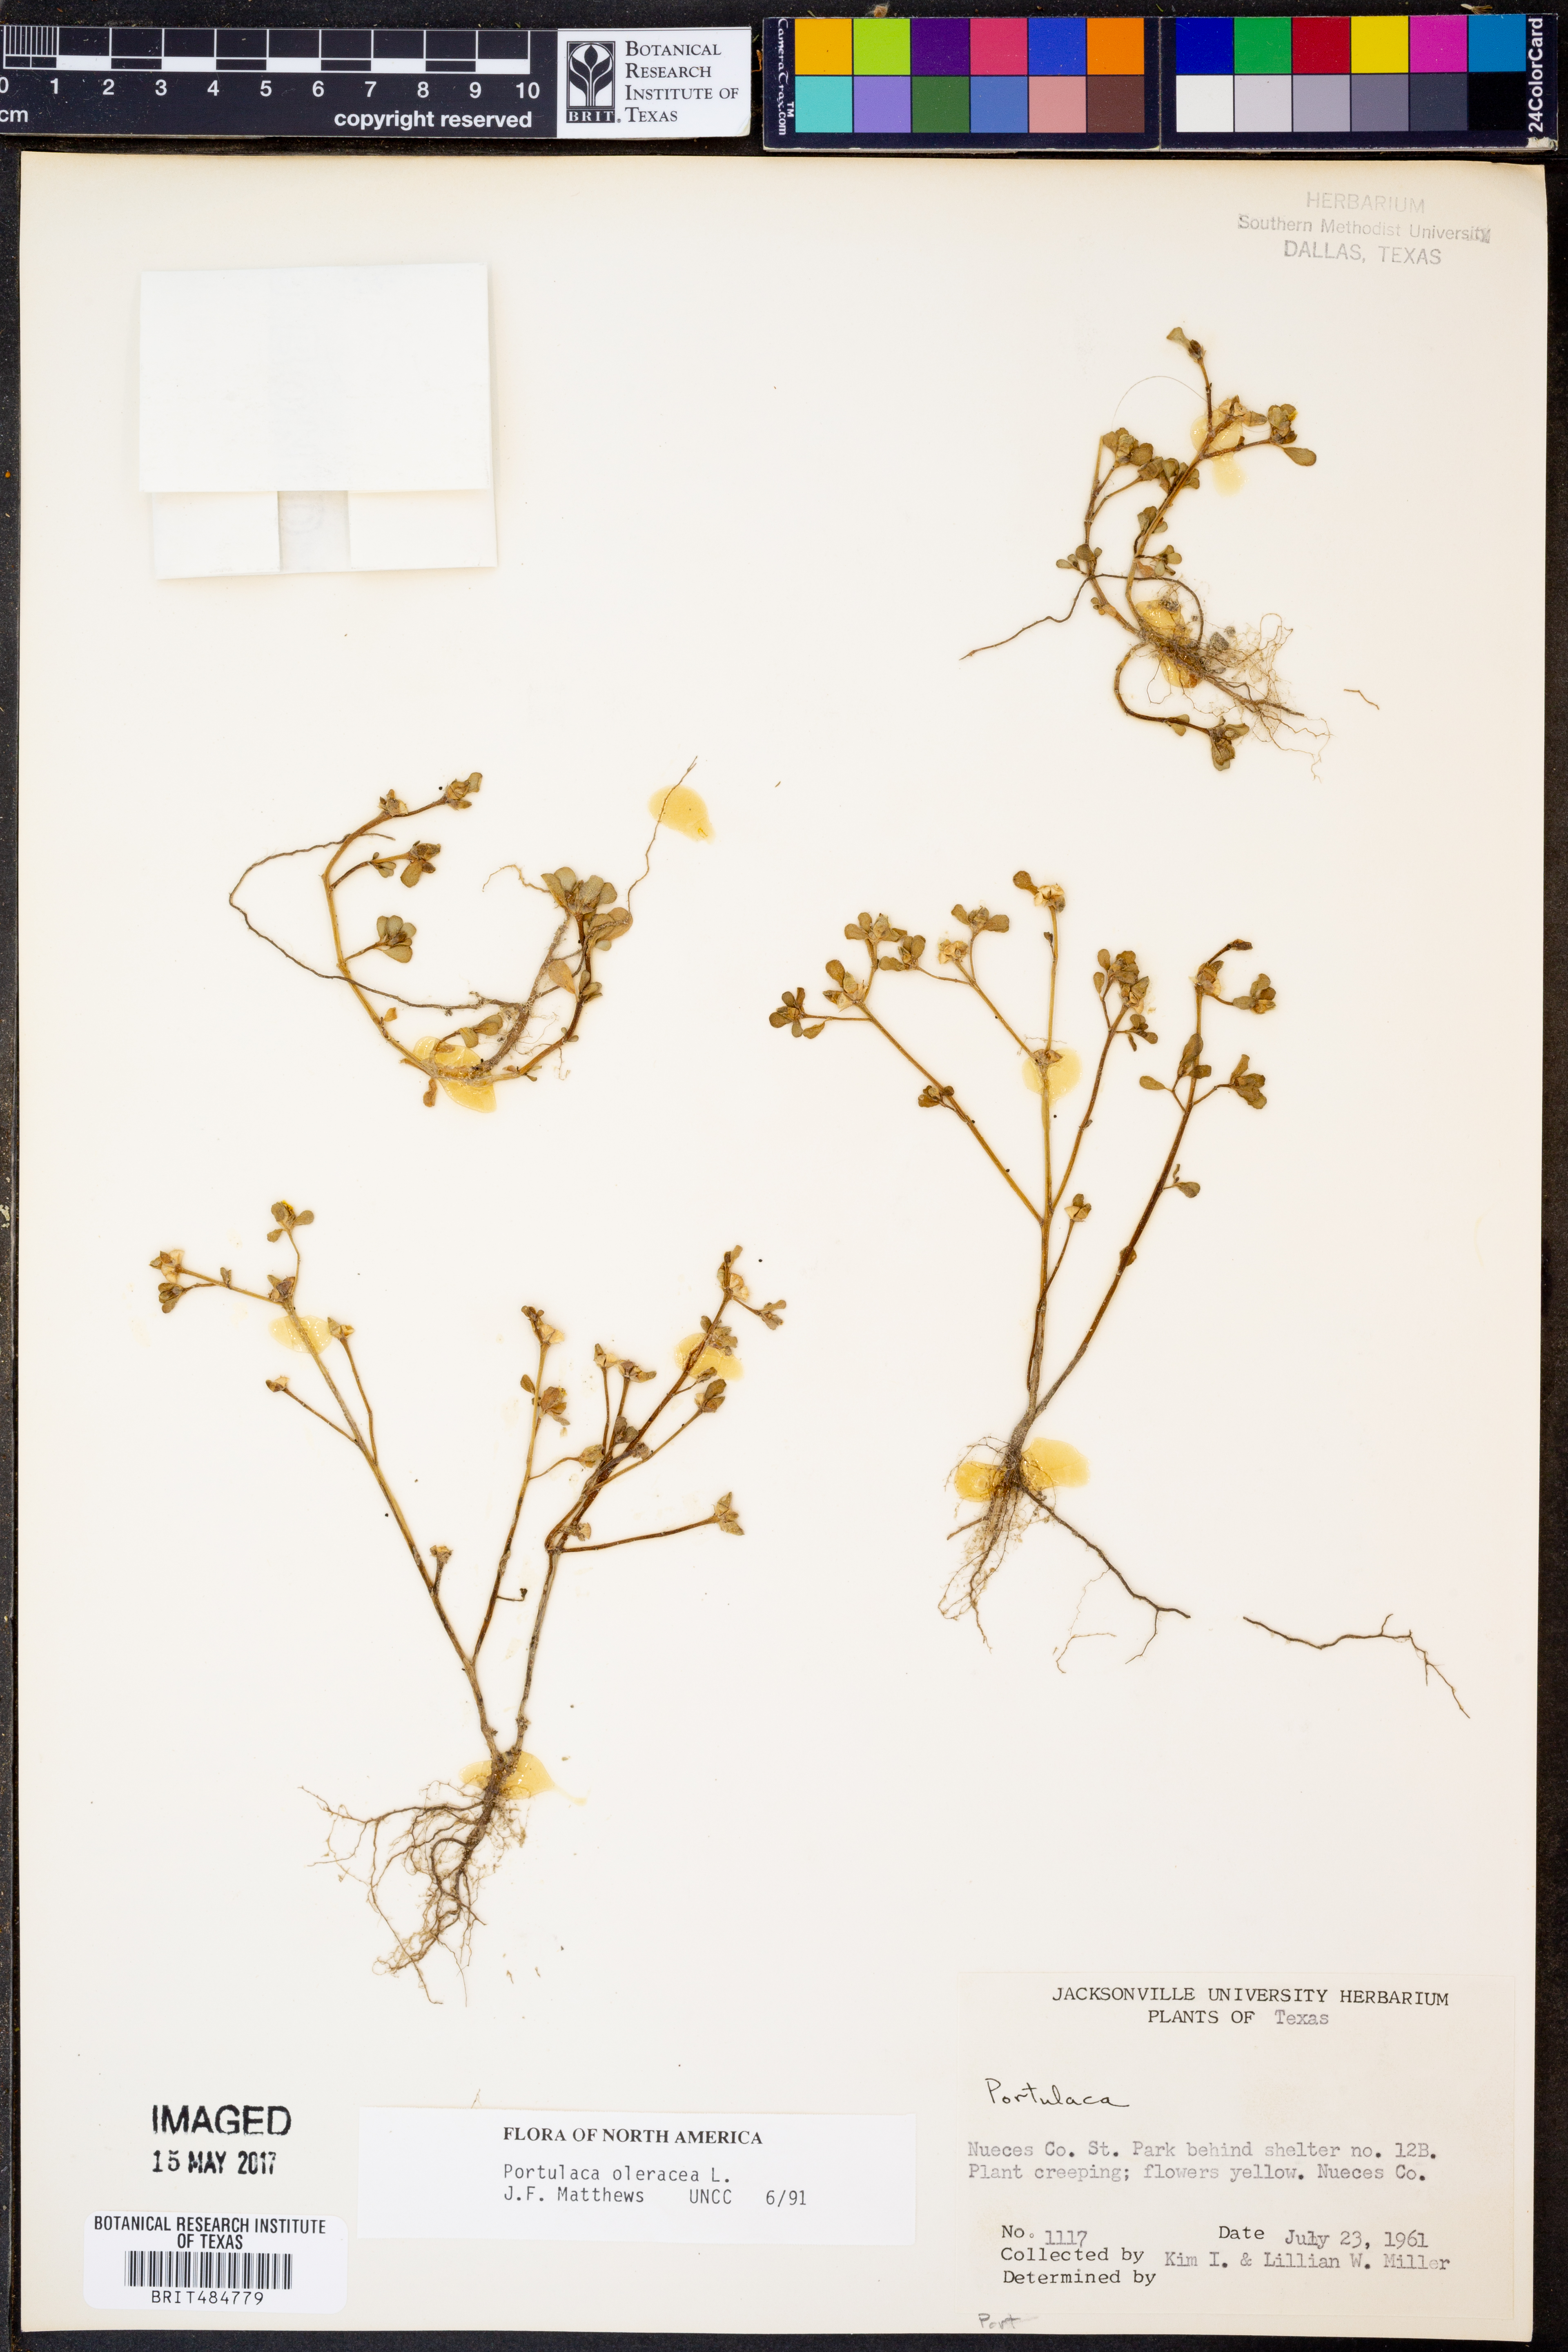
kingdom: Plantae
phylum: Tracheophyta
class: Magnoliopsida
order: Caryophyllales
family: Portulacaceae
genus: Portulaca
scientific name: Portulaca oleracea
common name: Common purslane
